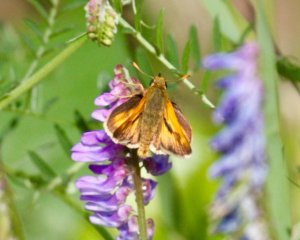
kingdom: Animalia
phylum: Arthropoda
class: Insecta
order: Lepidoptera
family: Hesperiidae
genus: Polites
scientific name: Polites
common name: Long Dash Skipper
